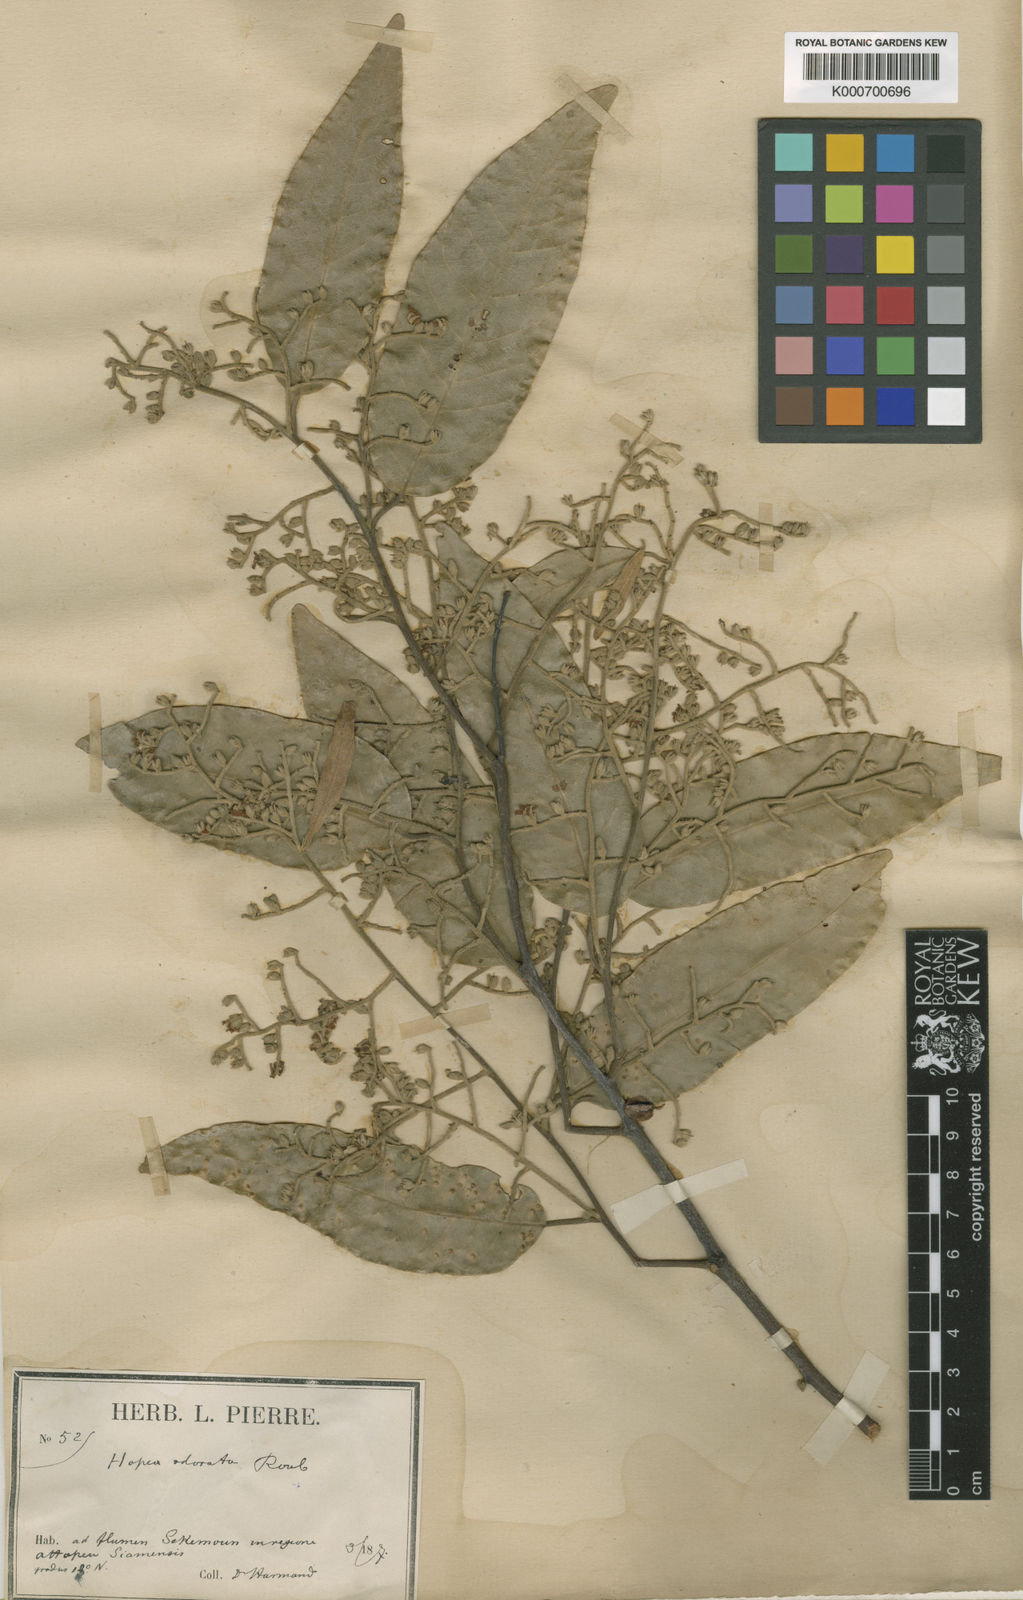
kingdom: Plantae
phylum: Tracheophyta
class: Magnoliopsida
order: Malvales
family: Dipterocarpaceae
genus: Hopea
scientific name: Hopea odorata
